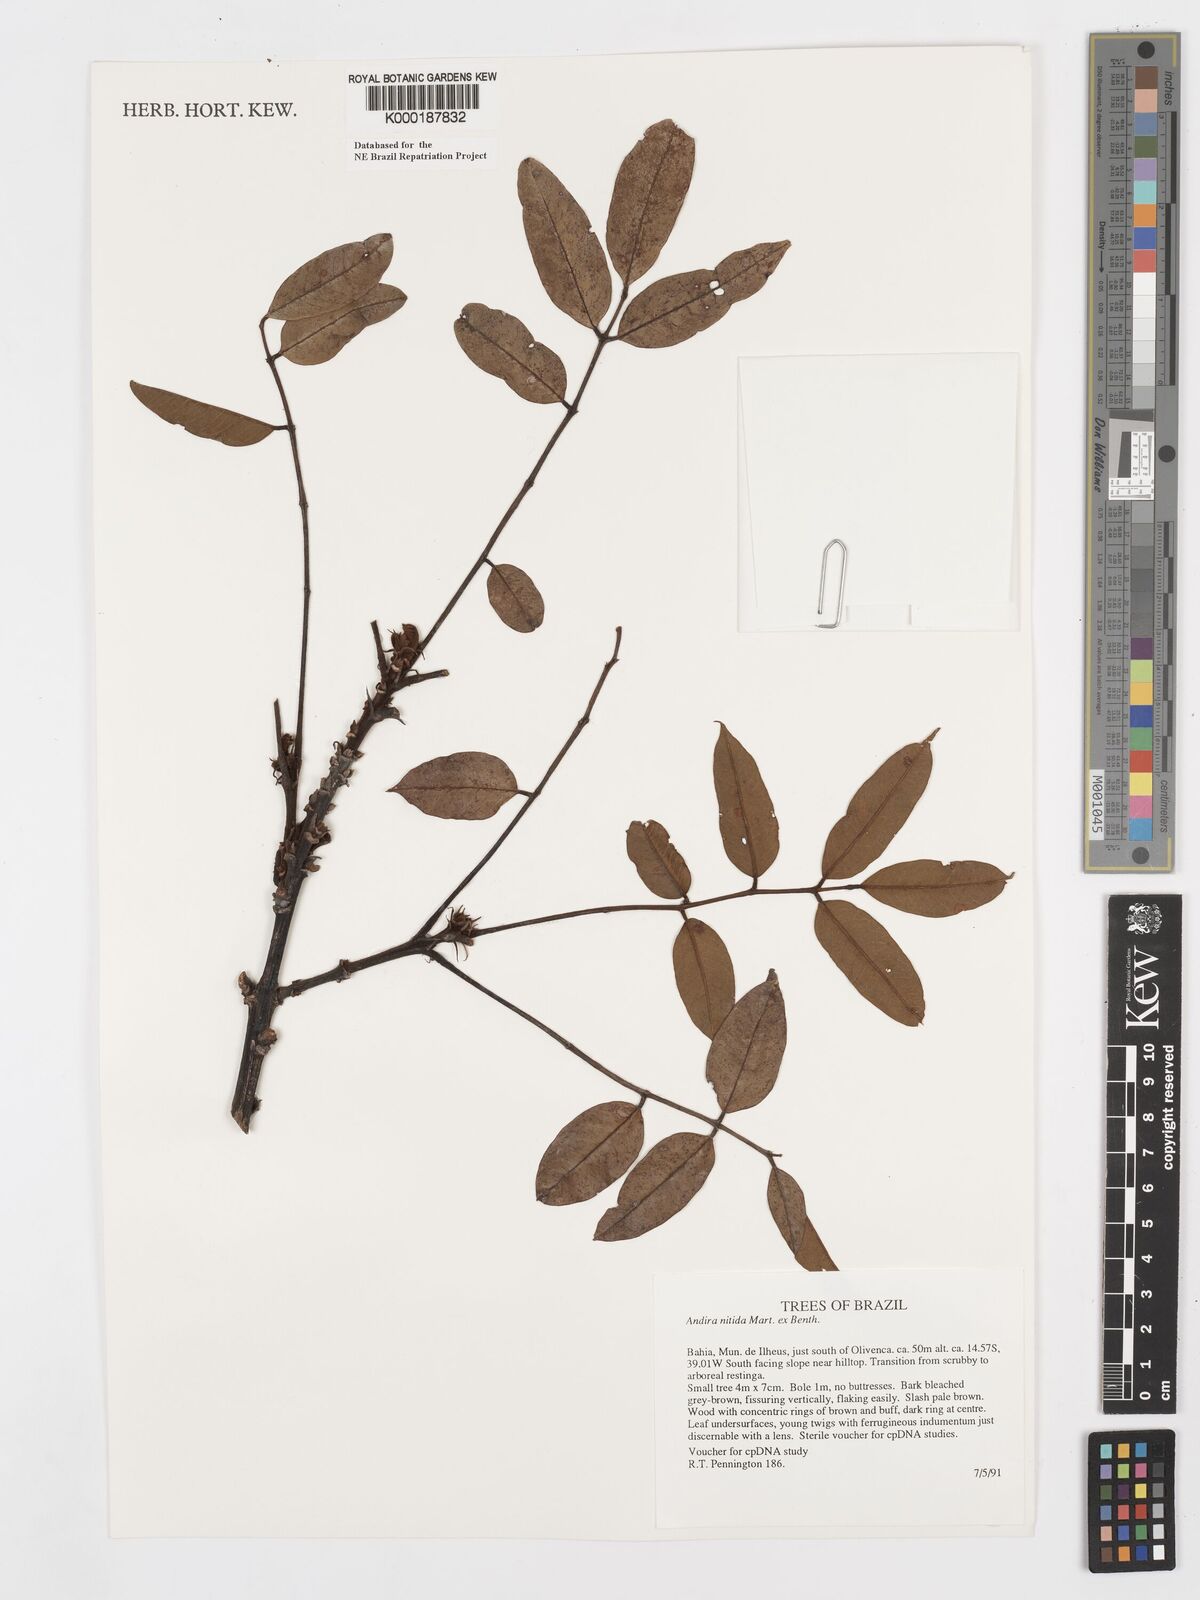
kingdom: Plantae
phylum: Tracheophyta
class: Magnoliopsida
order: Fabales
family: Fabaceae
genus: Andira
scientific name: Andira nitida
